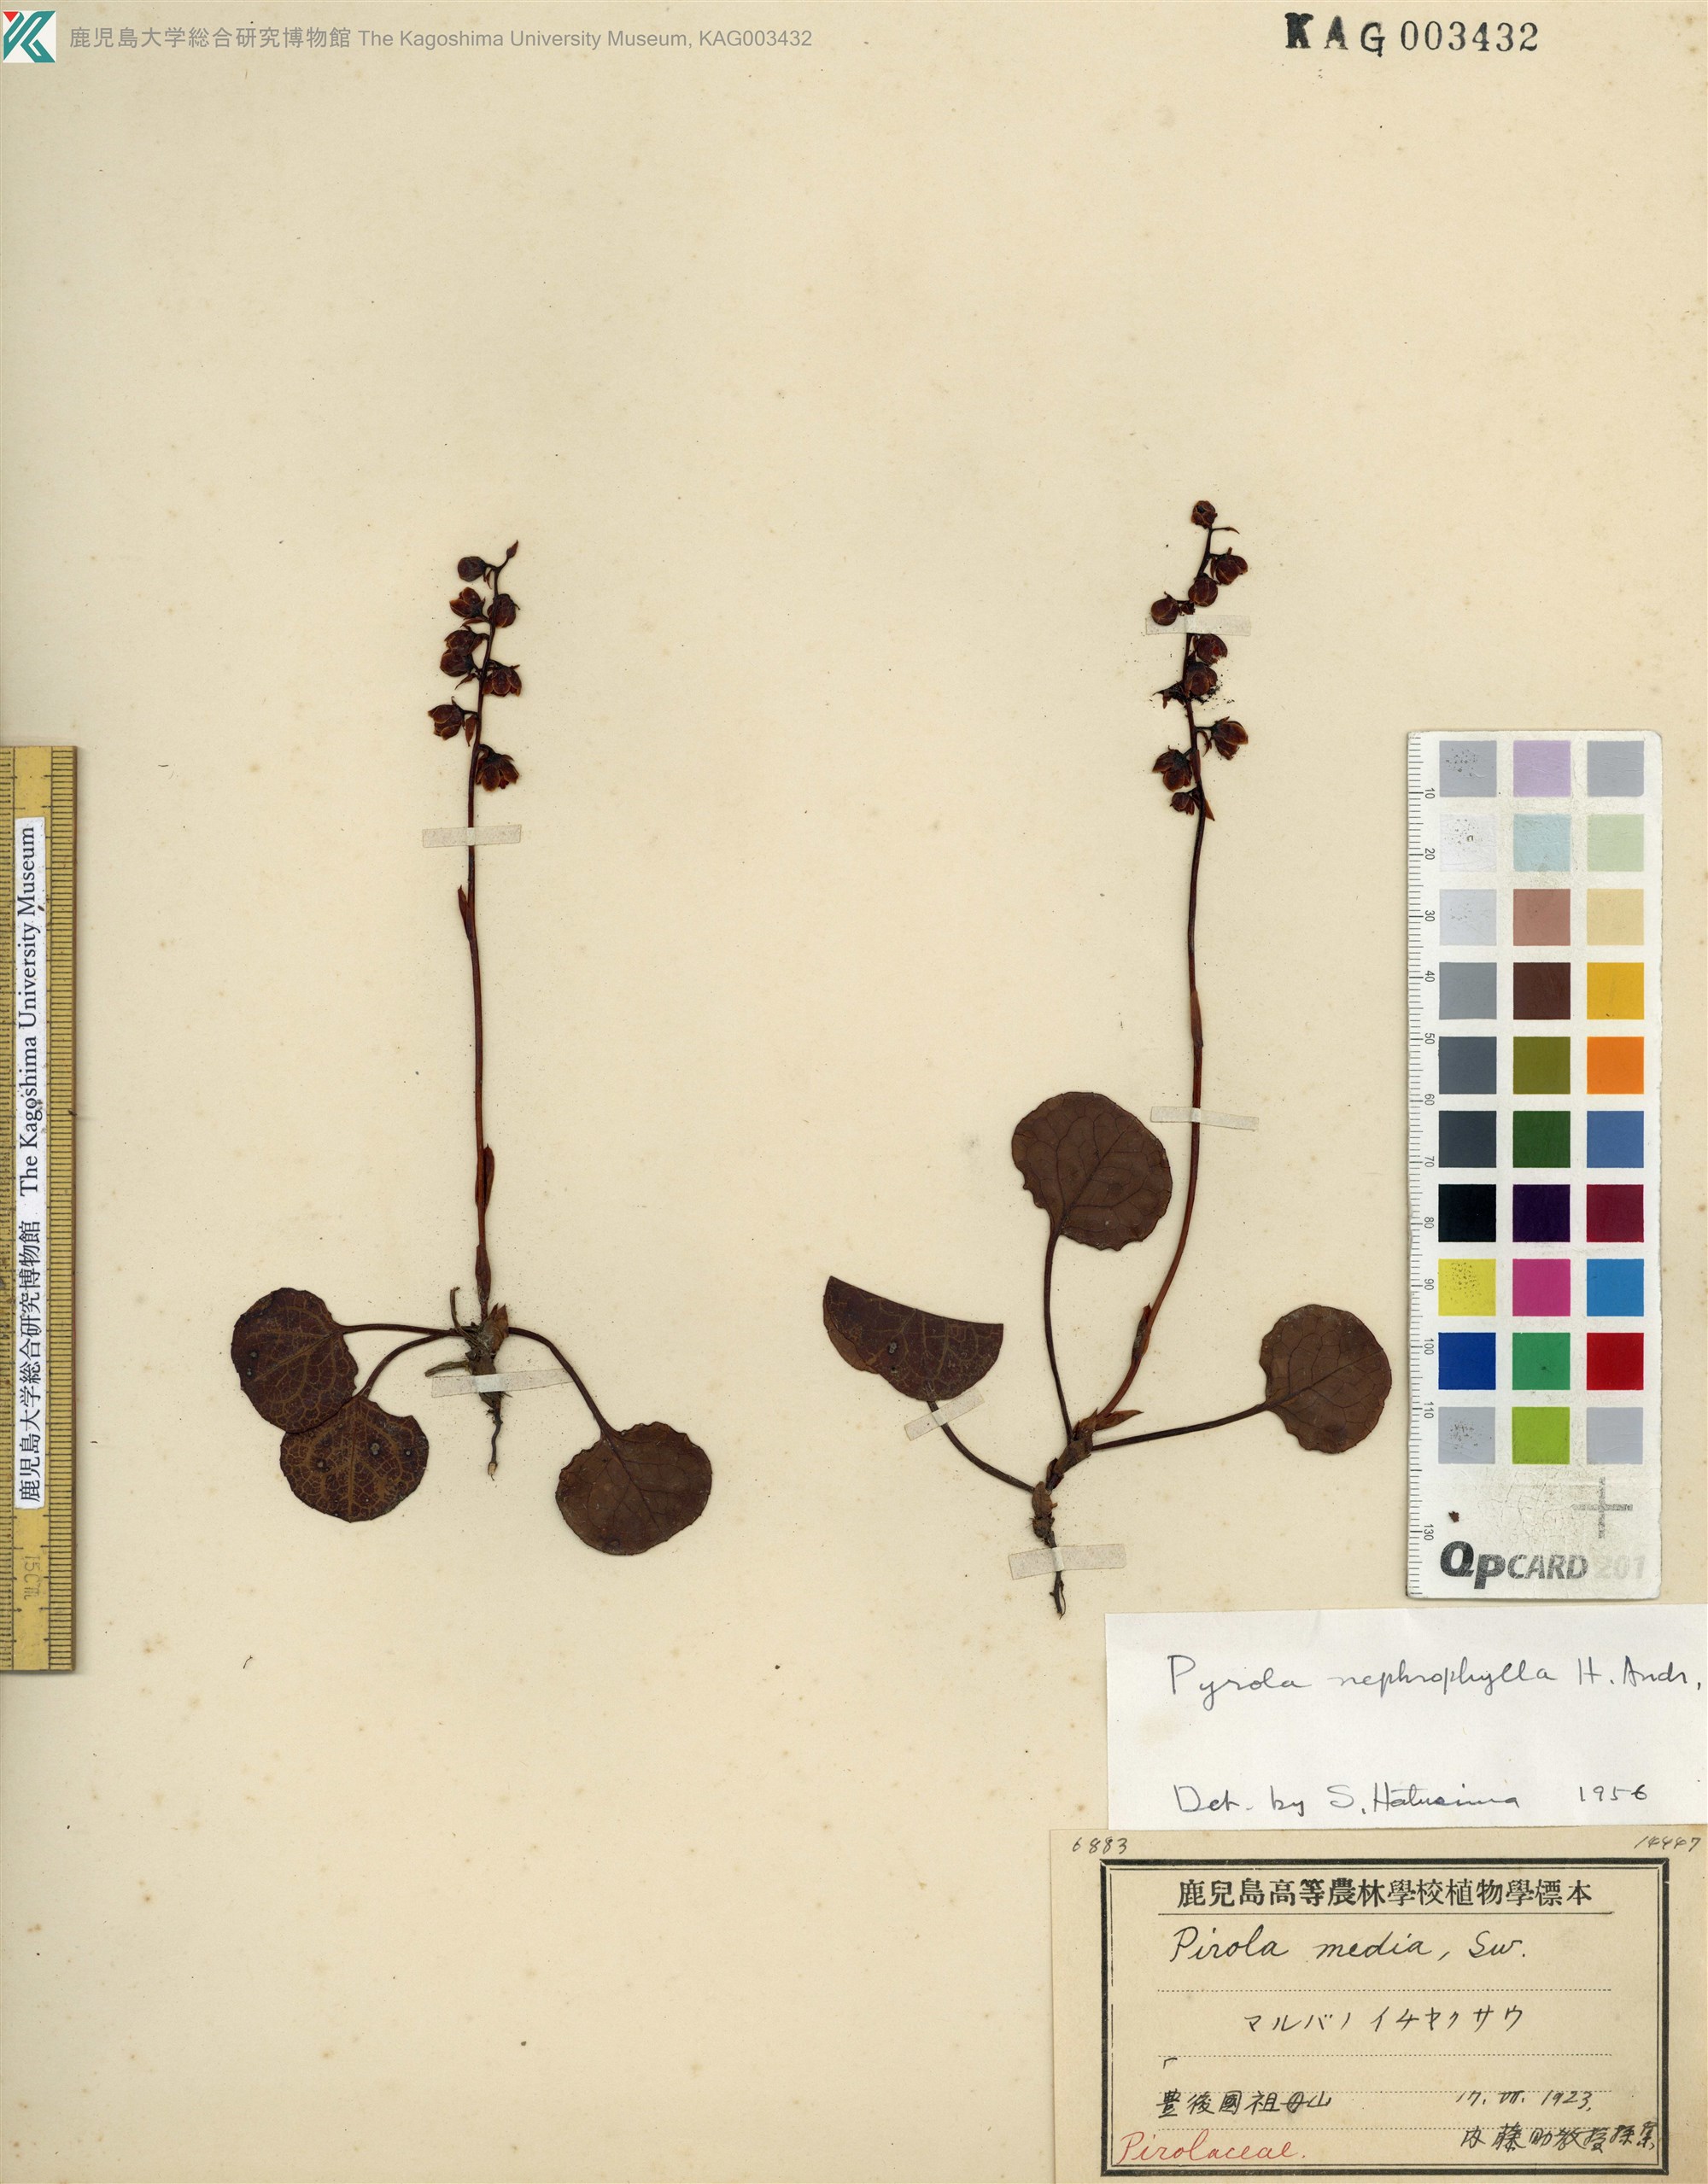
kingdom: Plantae
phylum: Tracheophyta
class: Magnoliopsida
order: Ericales
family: Ericaceae
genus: Pyrola
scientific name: Pyrola nephrophylla
